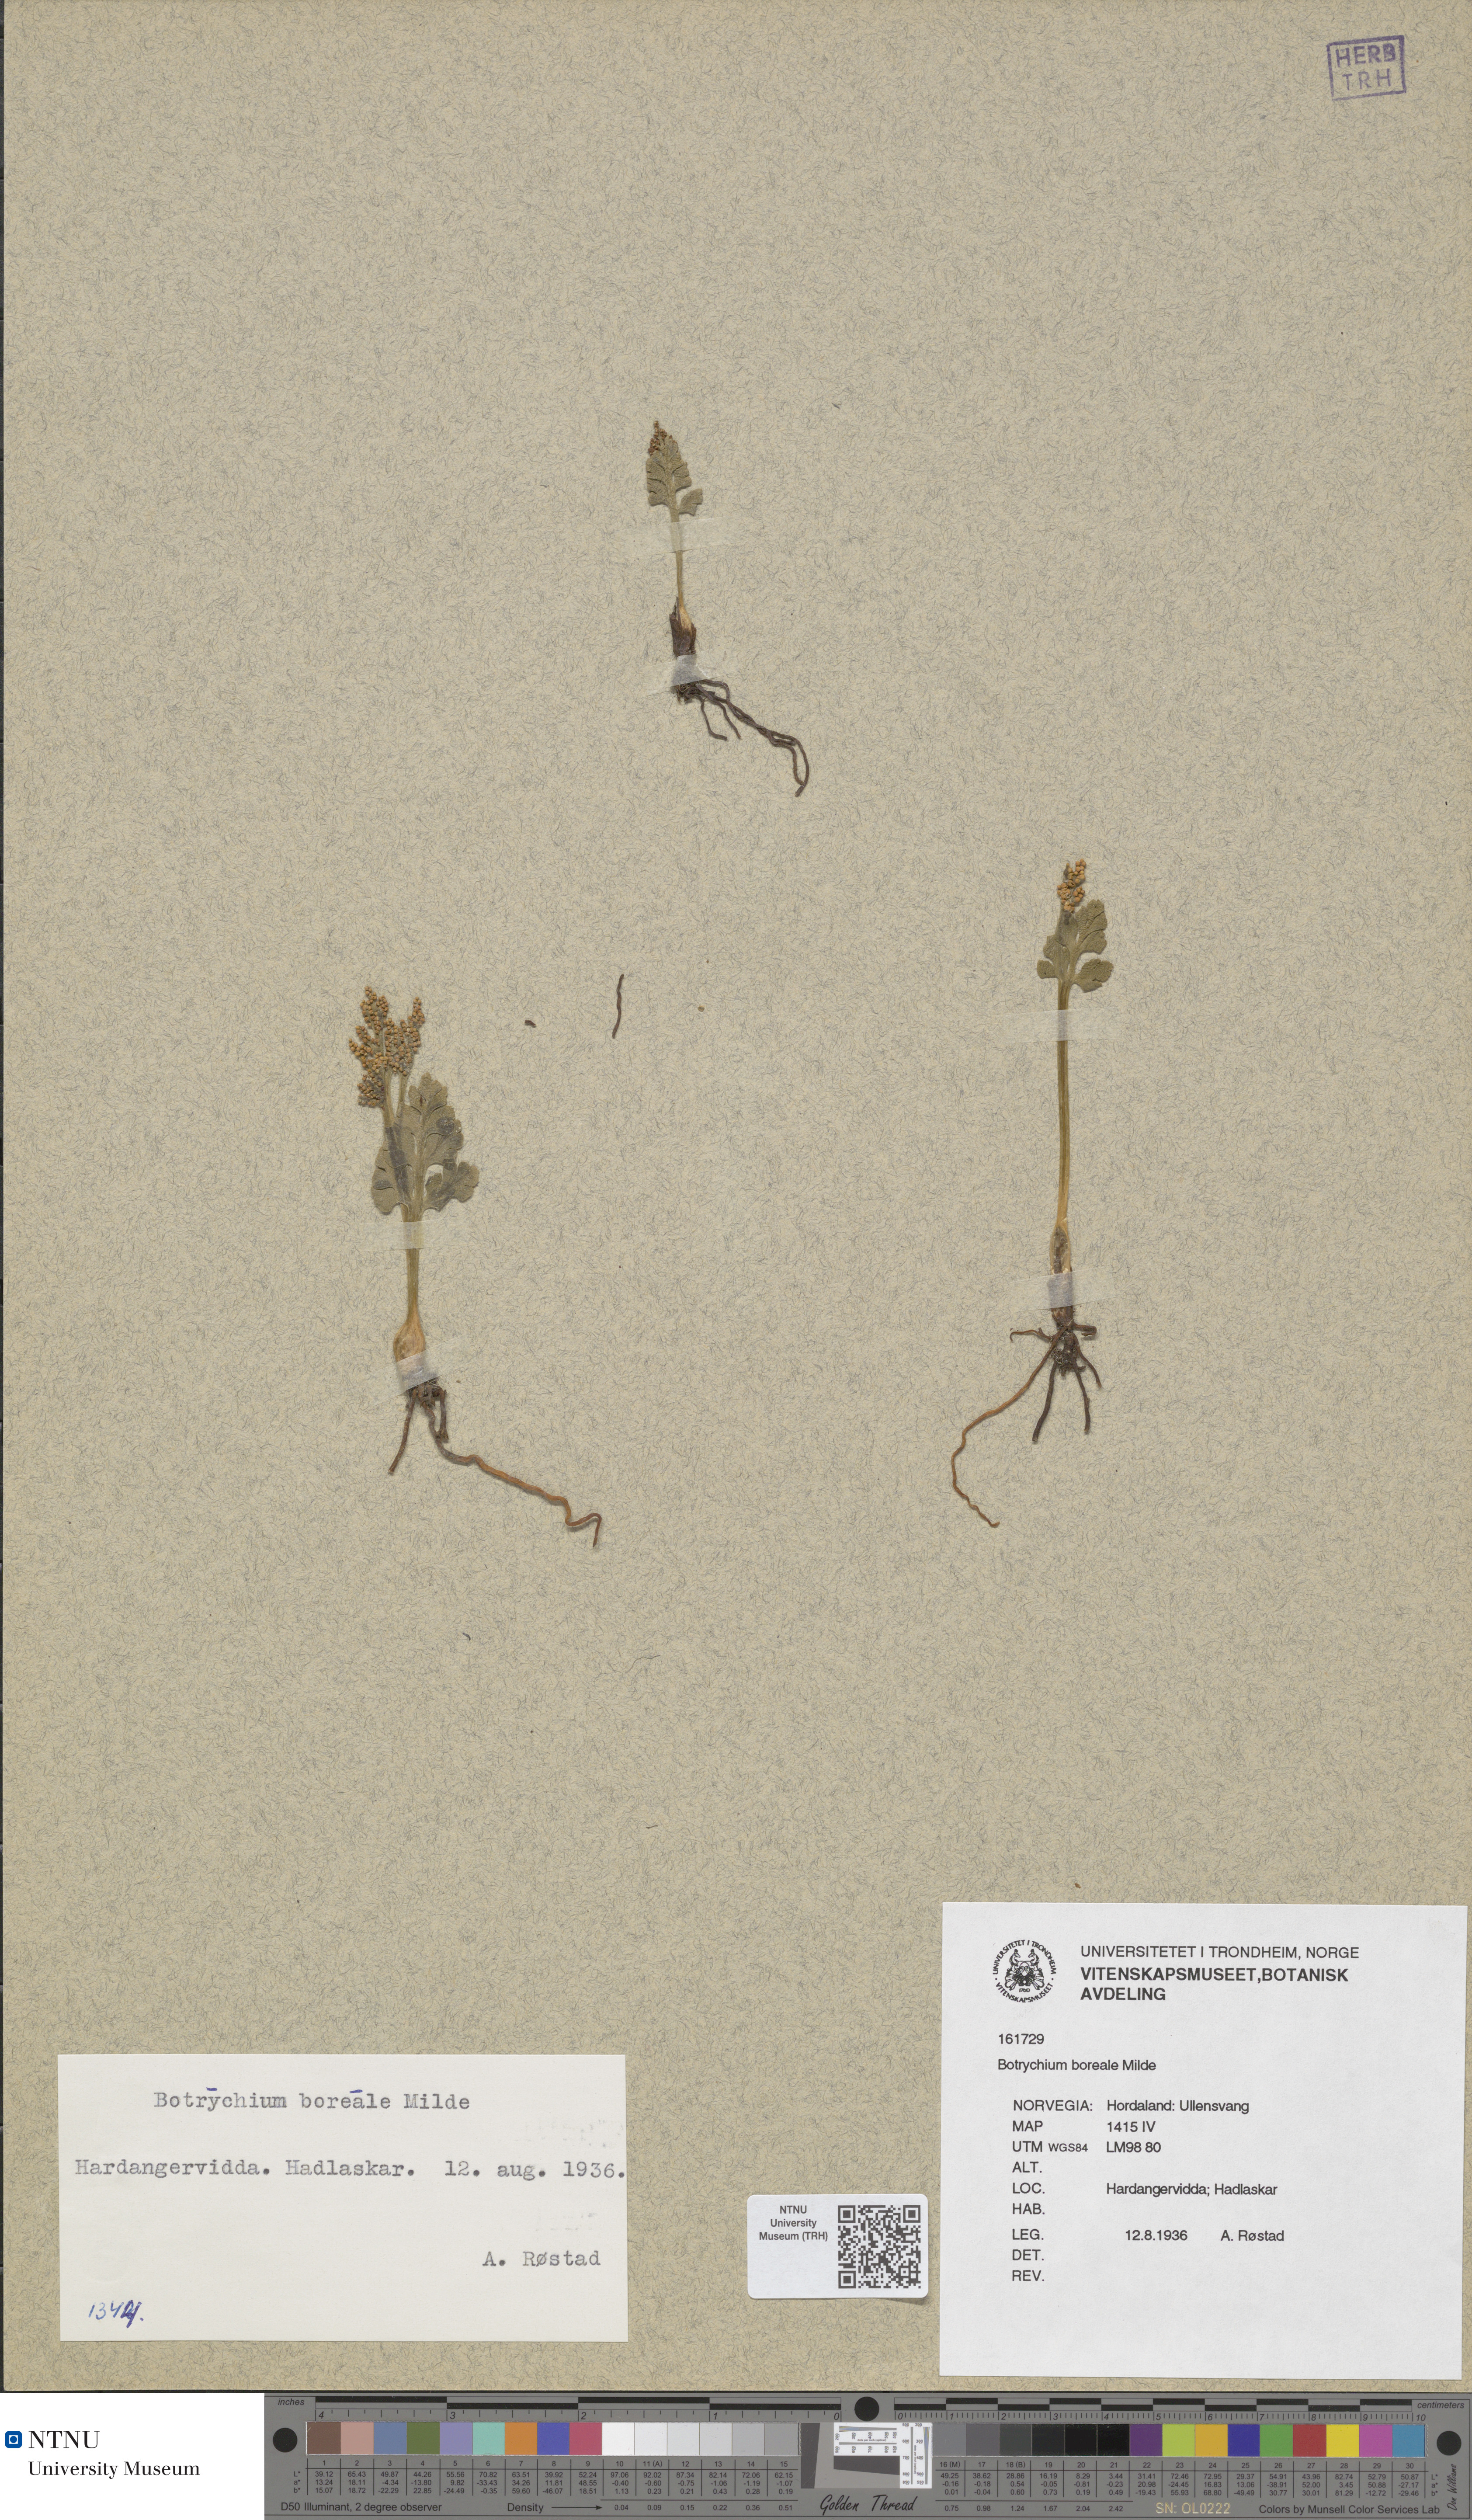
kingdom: Plantae
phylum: Tracheophyta
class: Polypodiopsida
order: Ophioglossales
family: Ophioglossaceae
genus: Botrychium
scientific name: Botrychium boreale
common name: Boreal moonwort
